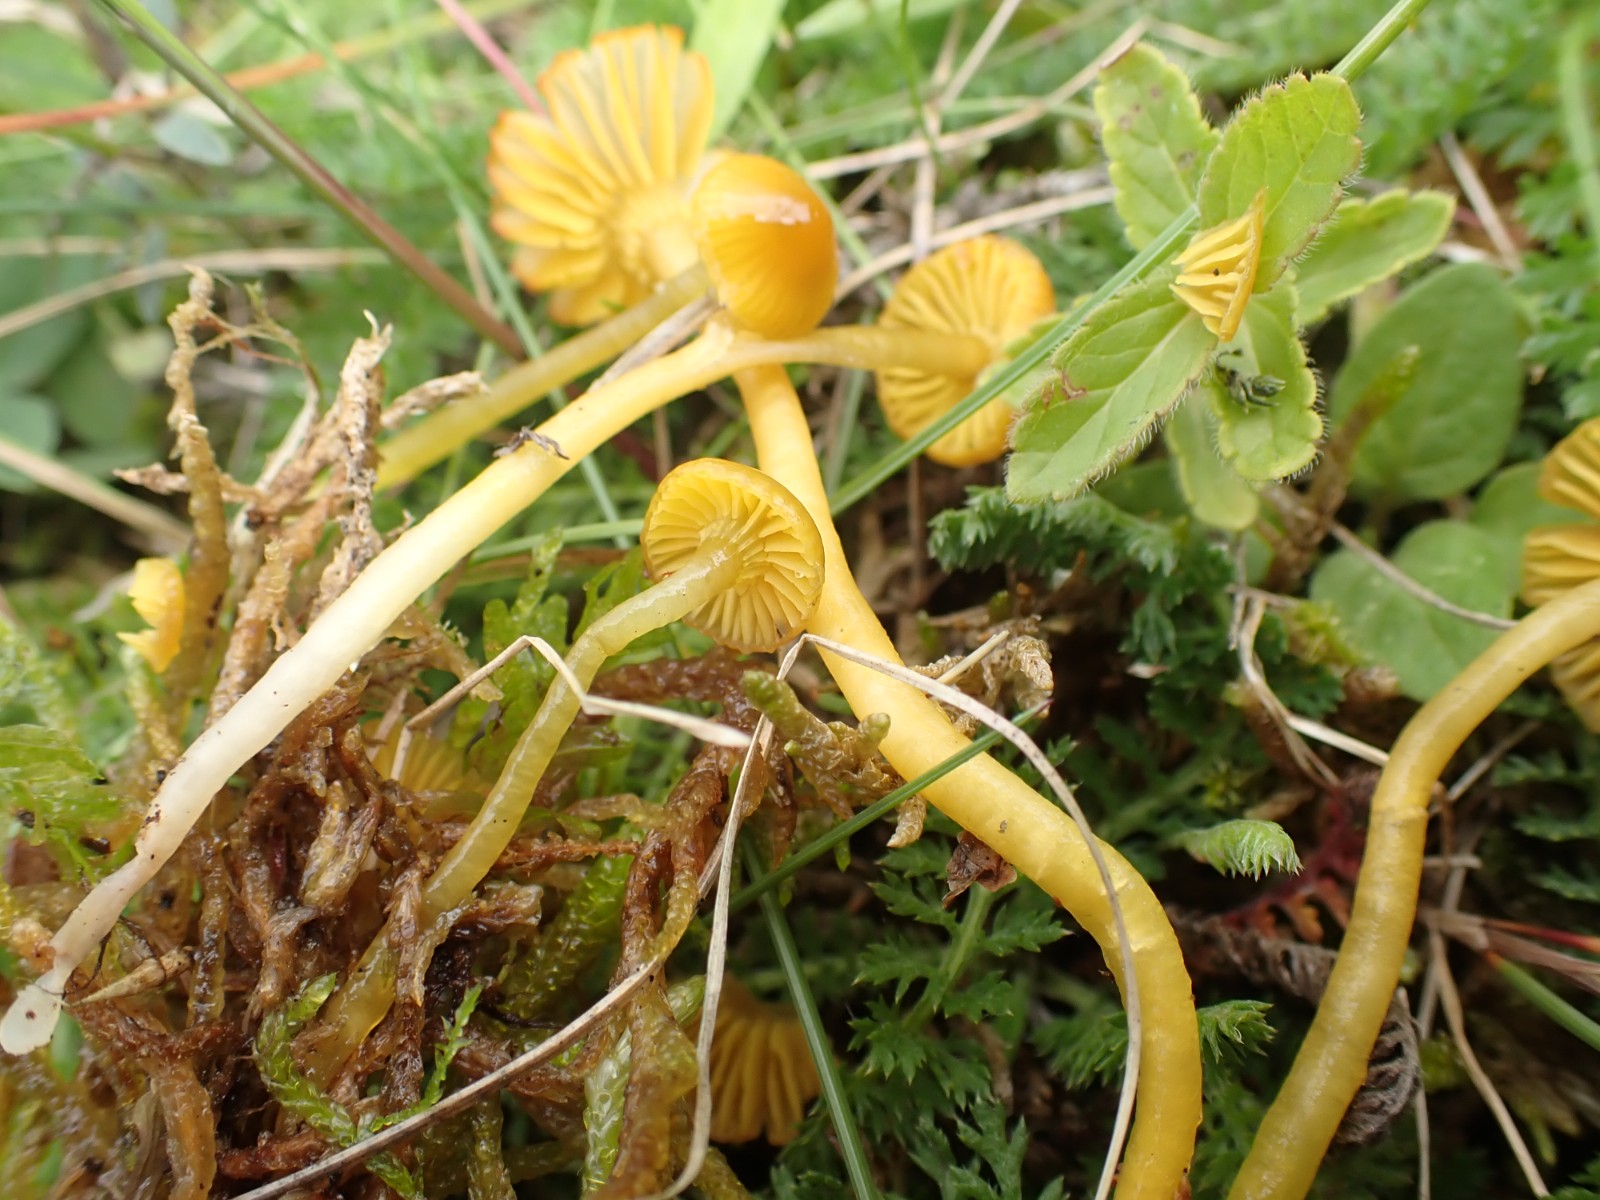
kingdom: Fungi
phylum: Basidiomycota
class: Agaricomycetes
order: Agaricales
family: Hygrophoraceae
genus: Gliophorus
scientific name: Gliophorus psittacinus
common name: papegøje-vokshat
